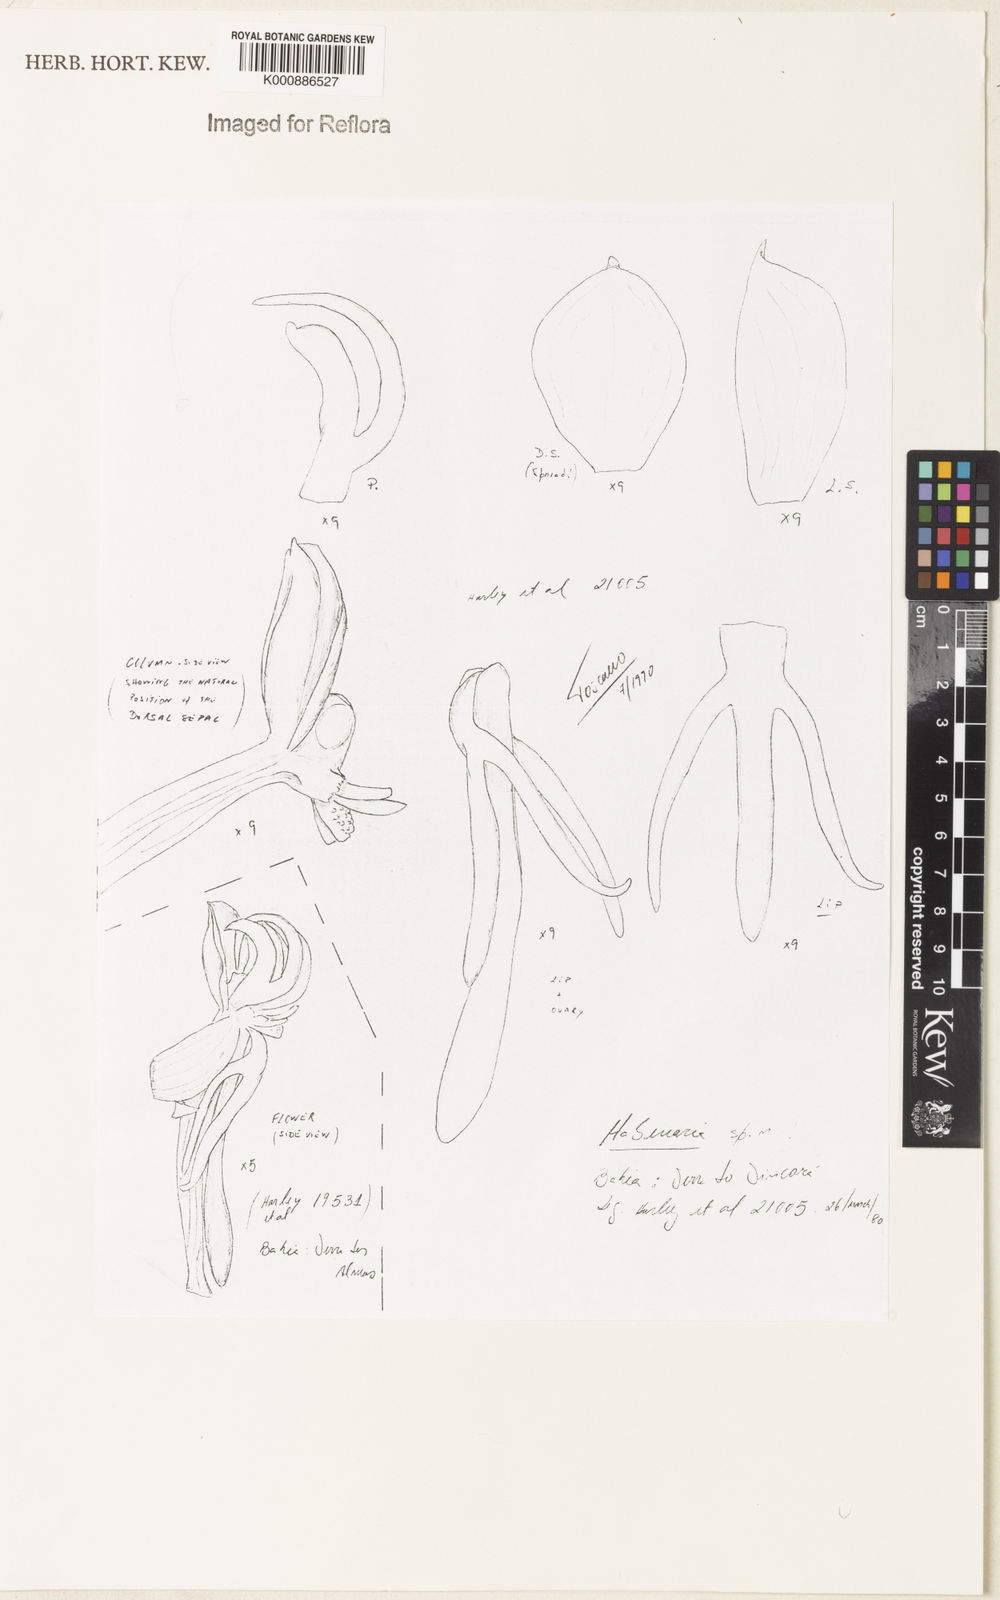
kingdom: Plantae
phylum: Tracheophyta
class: Liliopsida
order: Asparagales
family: Orchidaceae
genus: Habenaria
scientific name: Habenaria meeana
